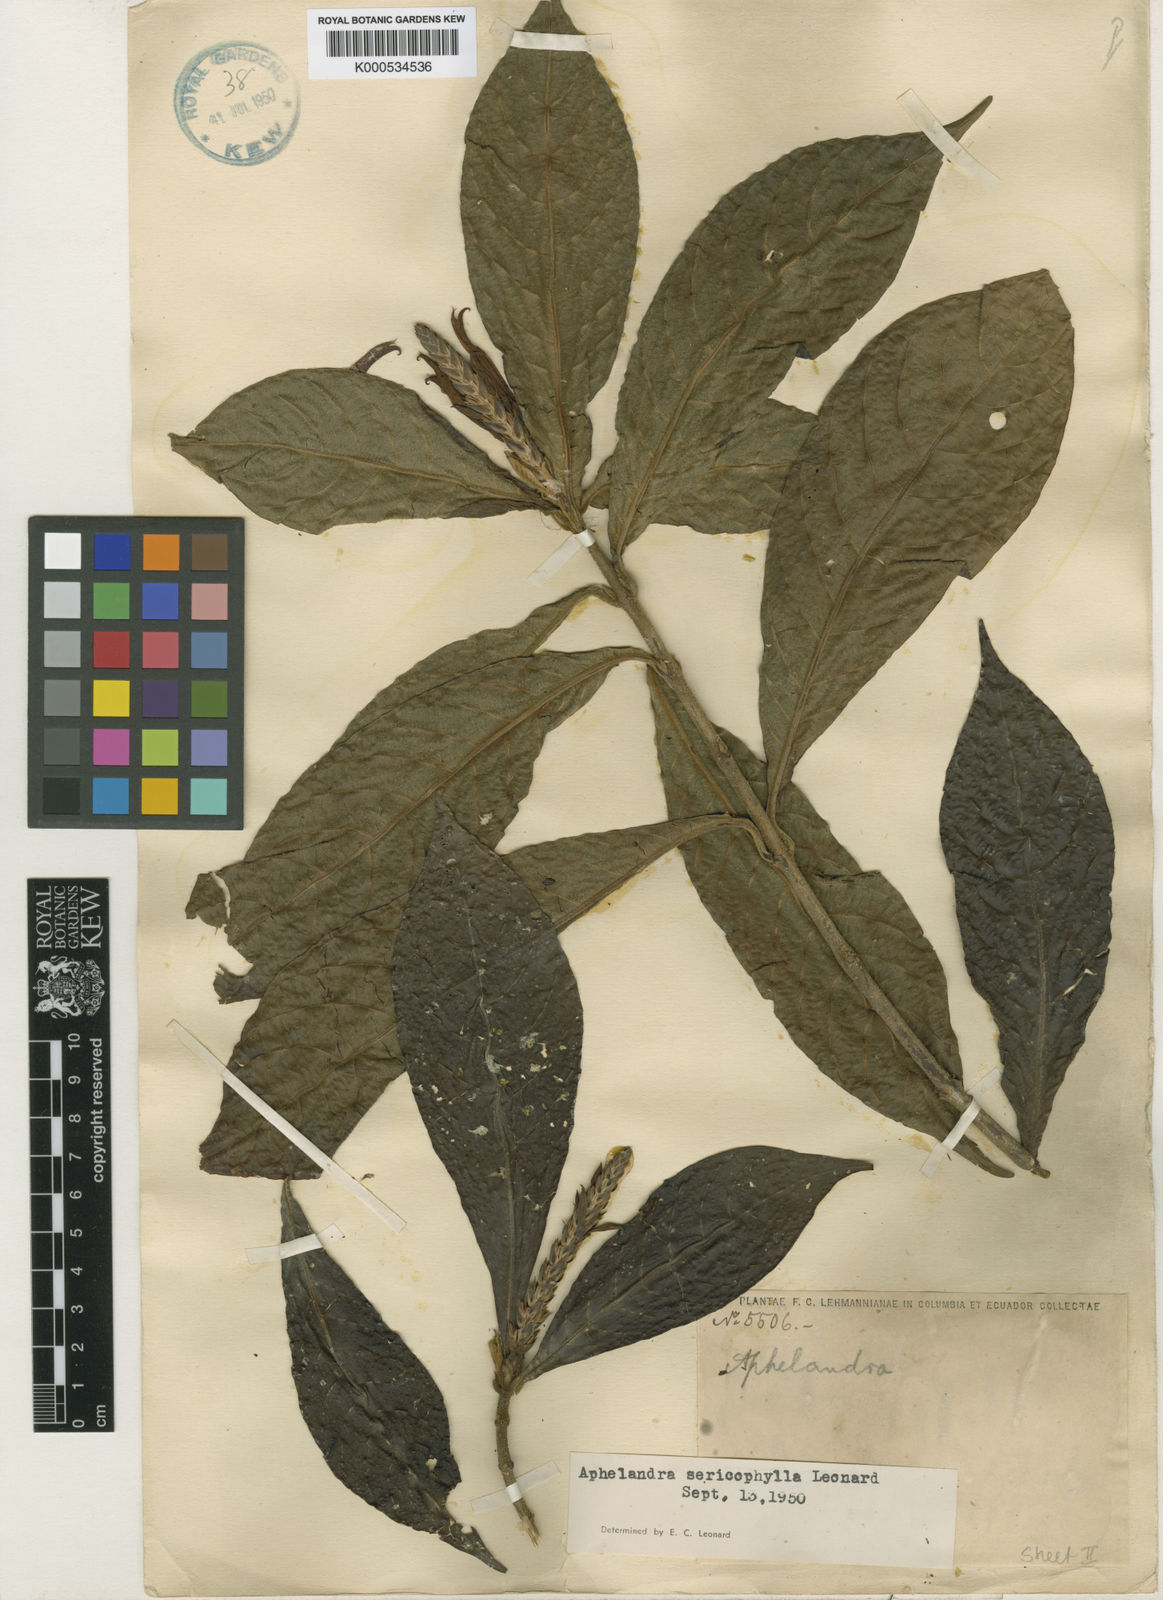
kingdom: Plantae
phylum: Tracheophyta
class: Magnoliopsida
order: Lamiales
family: Acanthaceae
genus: Aphelandra
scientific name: Aphelandra glabrata
